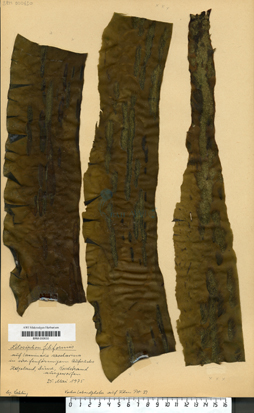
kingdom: Chromista
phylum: Ochrophyta
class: Phaeophyceae
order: Ectocarpales
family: Acinetosporaceae
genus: Pogotrichum
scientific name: Pogotrichum filiforme
